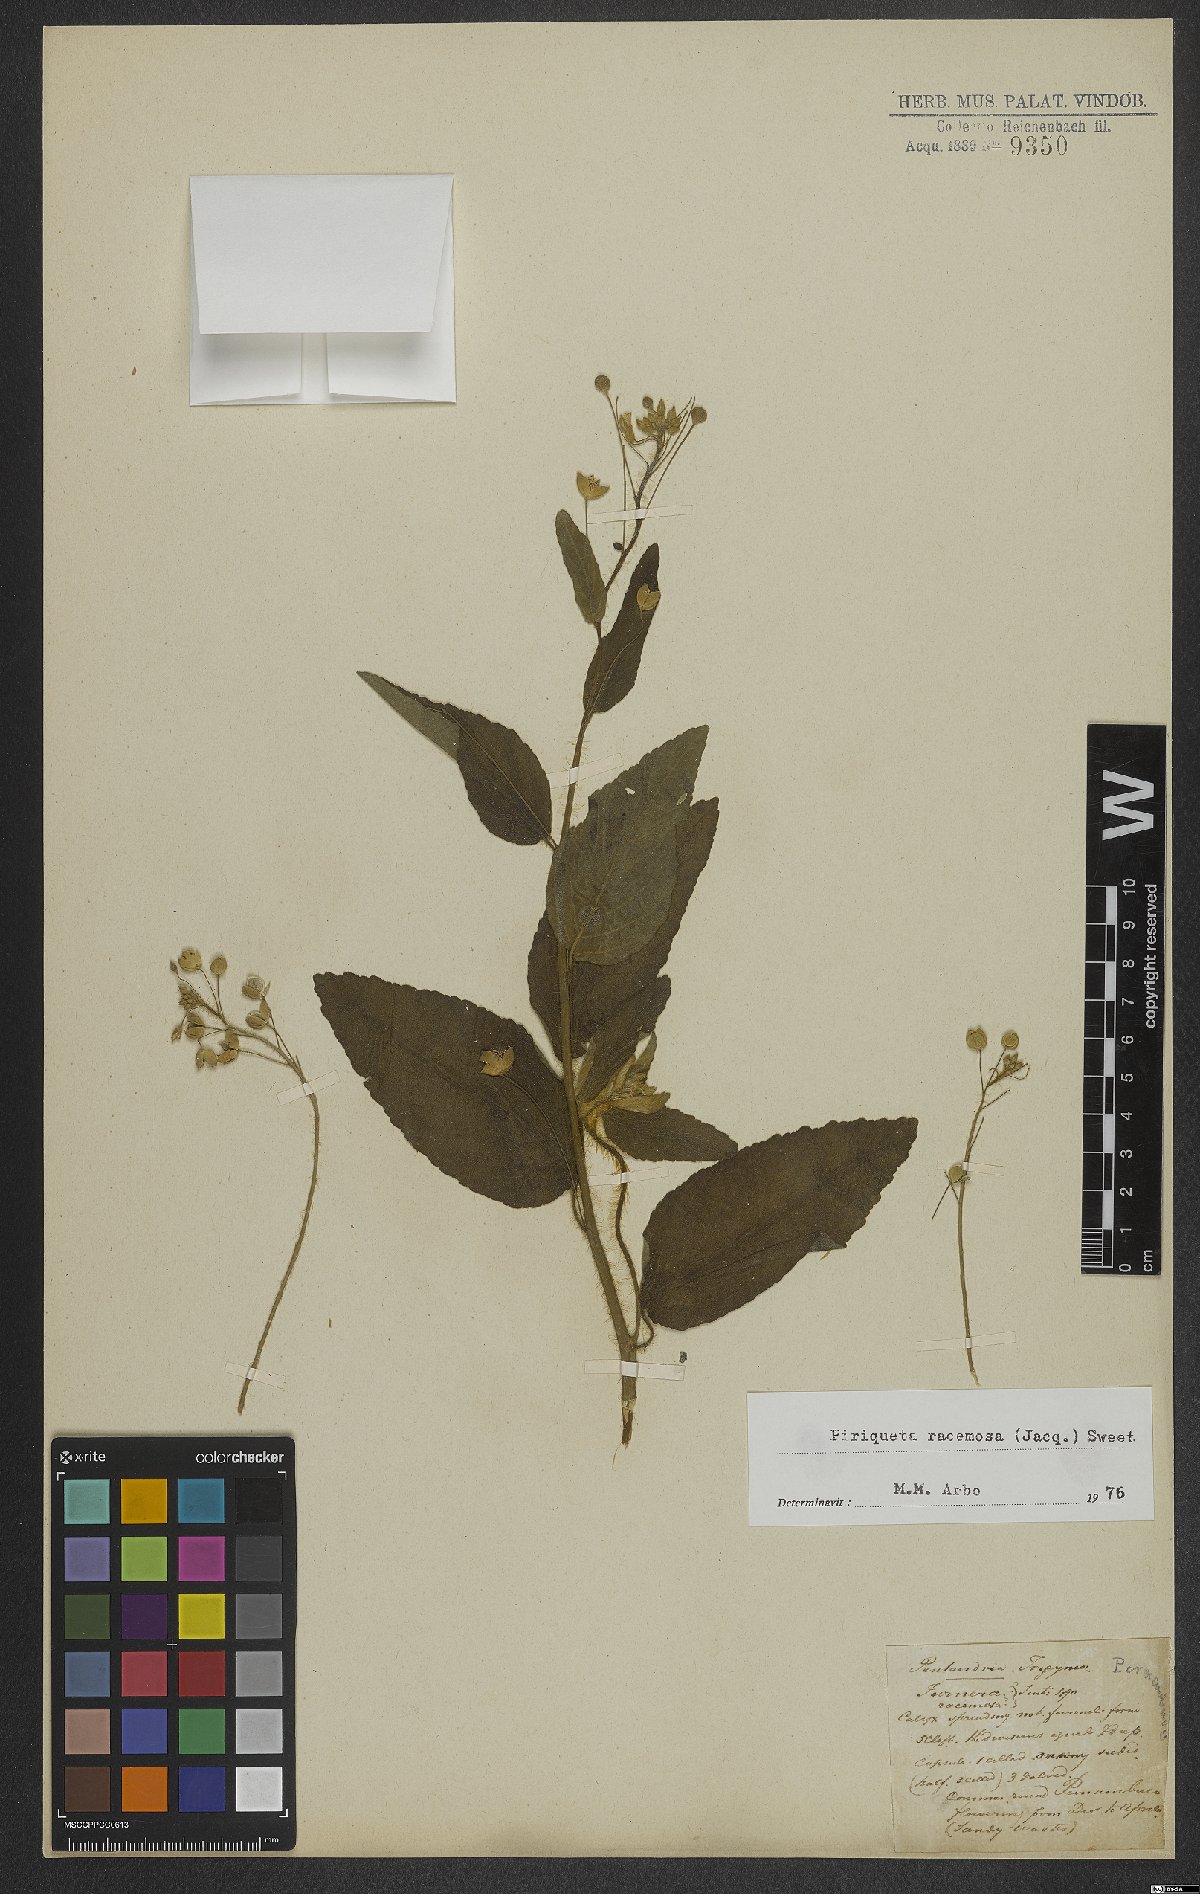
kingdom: Plantae
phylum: Tracheophyta
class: Magnoliopsida
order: Malpighiales
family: Turneraceae
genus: Piriqueta
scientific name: Piriqueta racemosa
